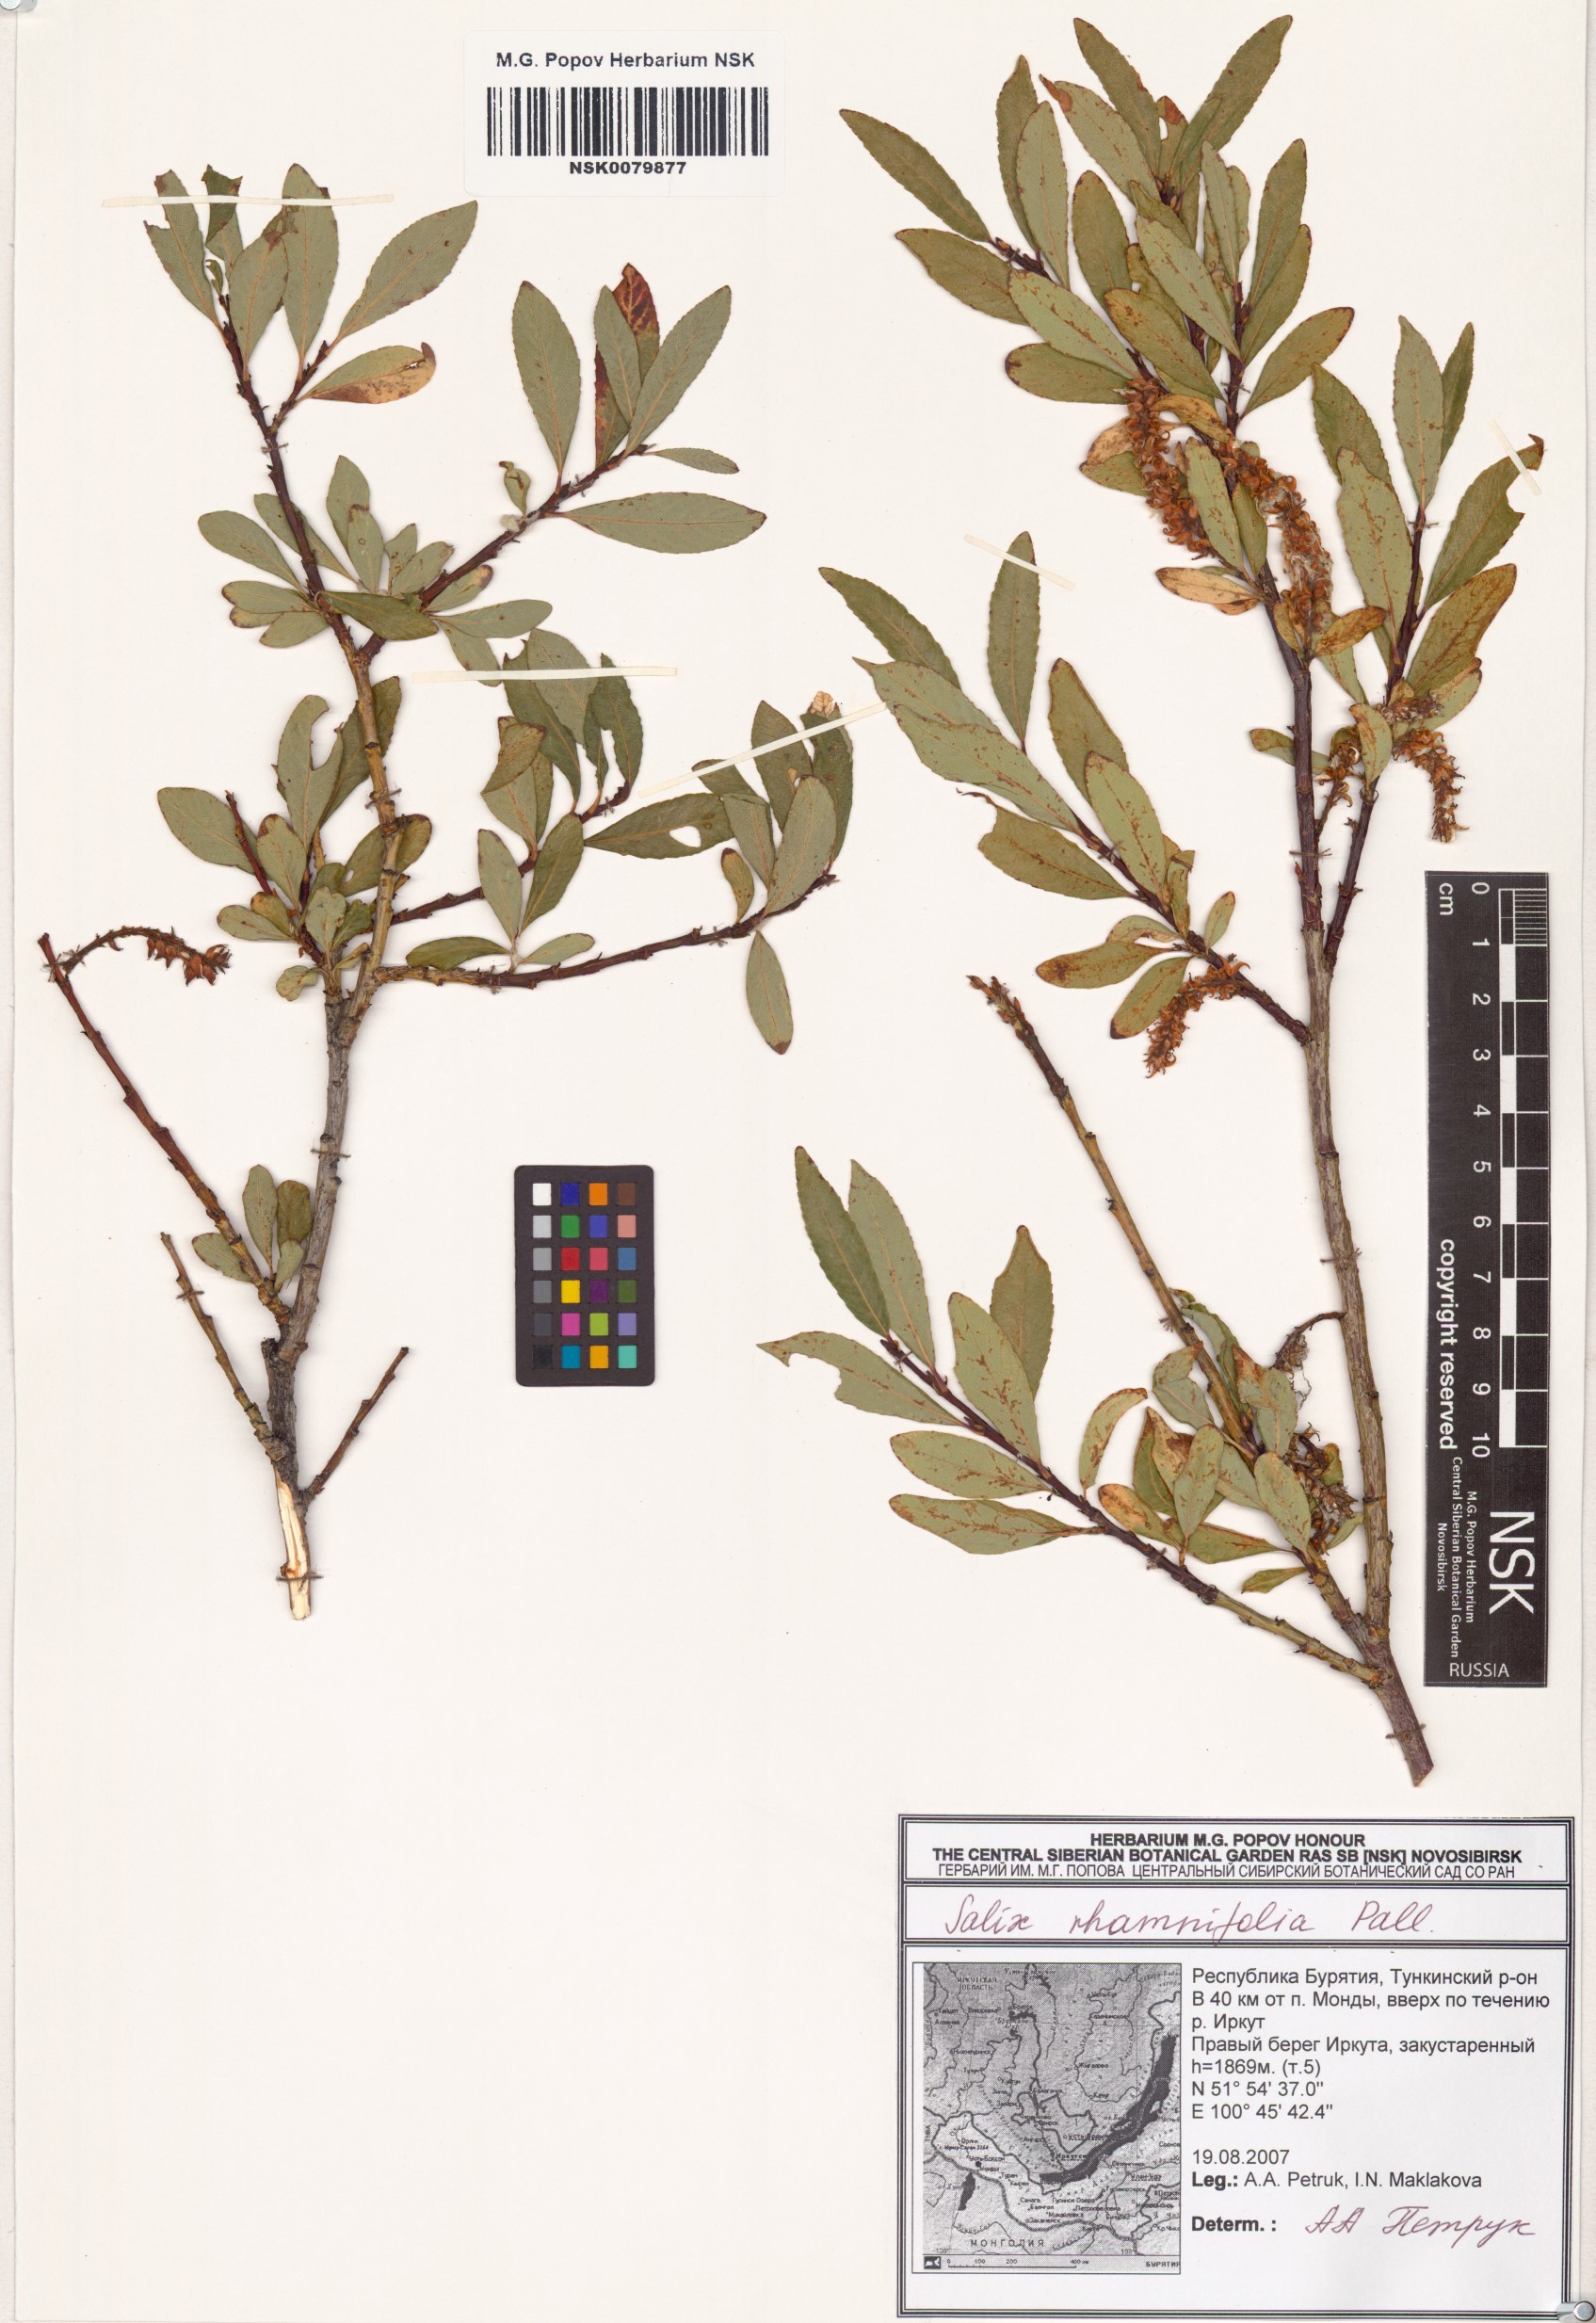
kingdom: Plantae
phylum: Tracheophyta
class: Magnoliopsida
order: Malpighiales
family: Salicaceae
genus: Salix
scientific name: Salix rhamnifolia
